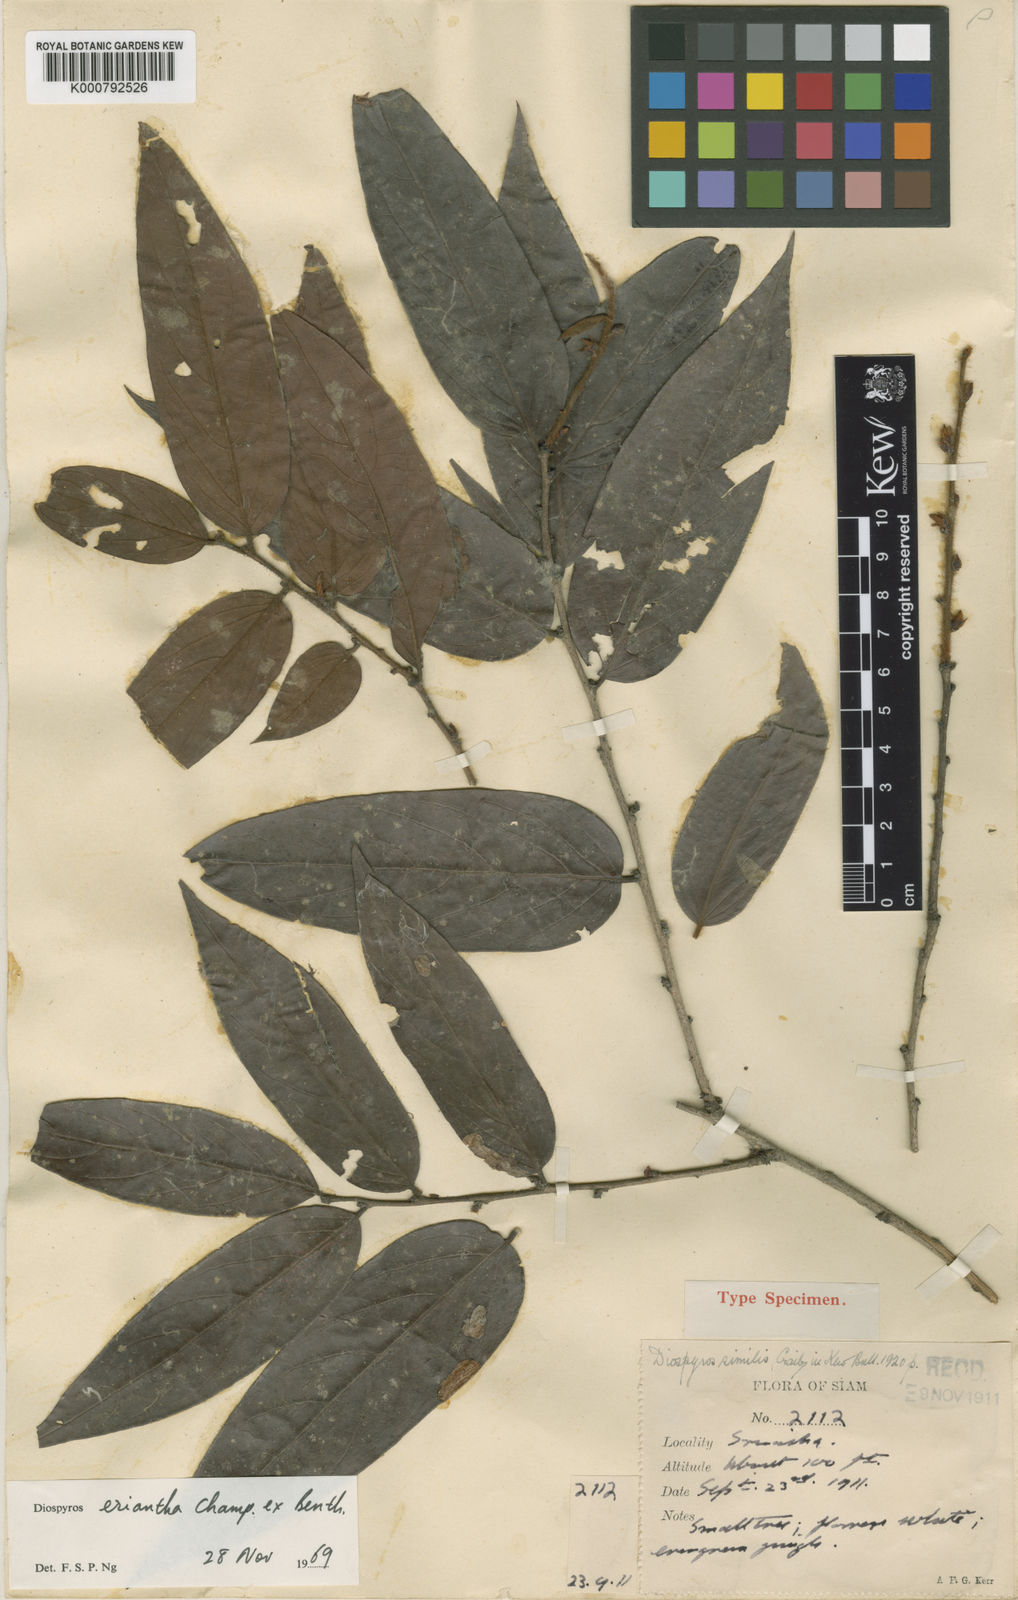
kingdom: Plantae
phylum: Tracheophyta
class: Magnoliopsida
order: Ericales
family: Ebenaceae
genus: Diospyros
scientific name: Diospyros strigosa
